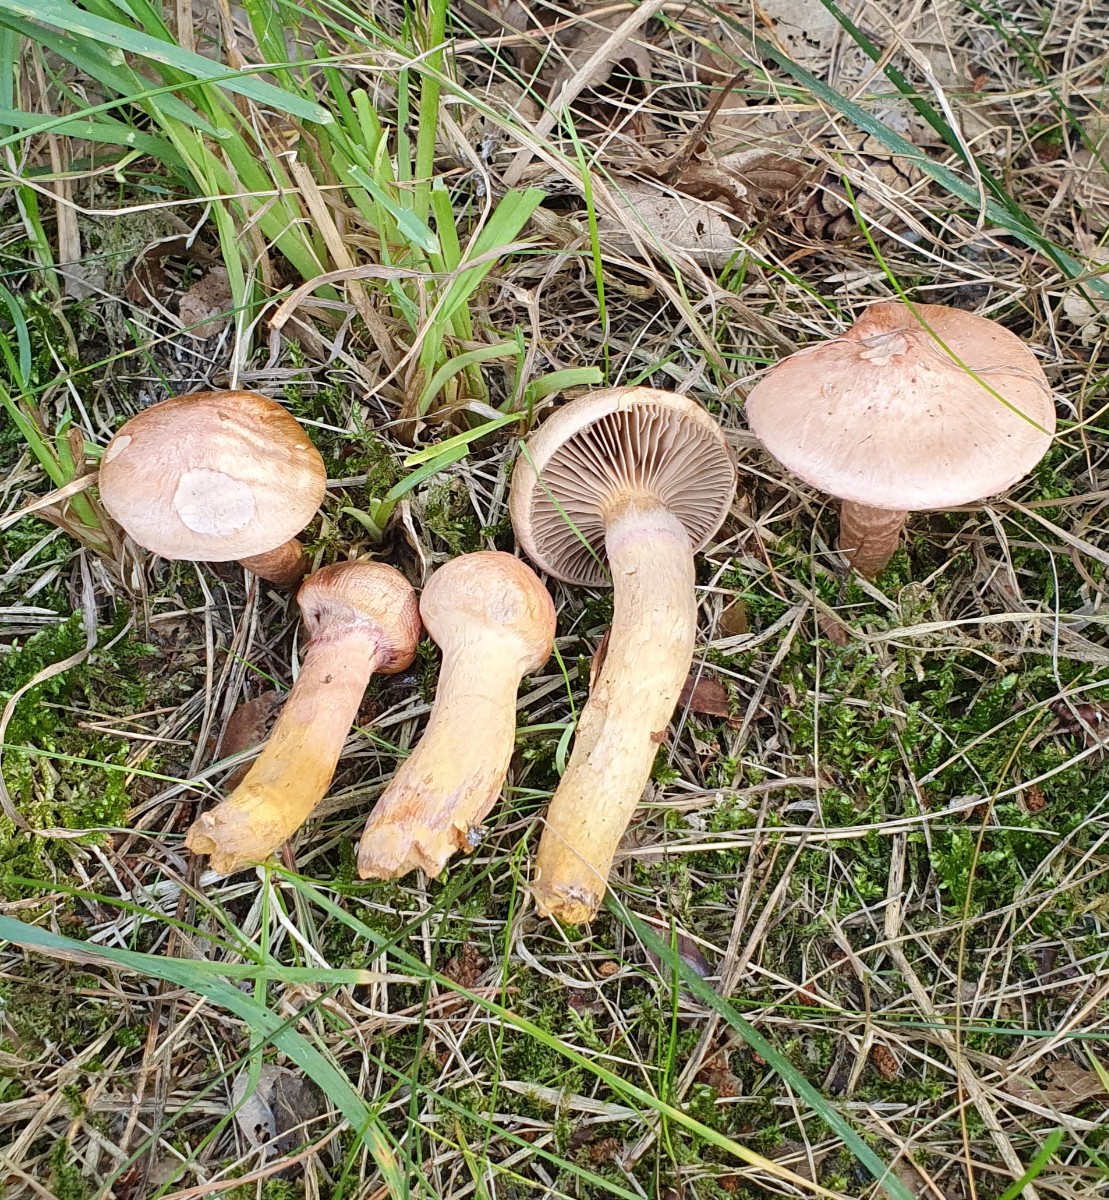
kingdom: Fungi
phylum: Basidiomycota
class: Agaricomycetes
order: Boletales
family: Gomphidiaceae
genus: Chroogomphus
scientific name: Chroogomphus rutilus
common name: brunrød slimslør
